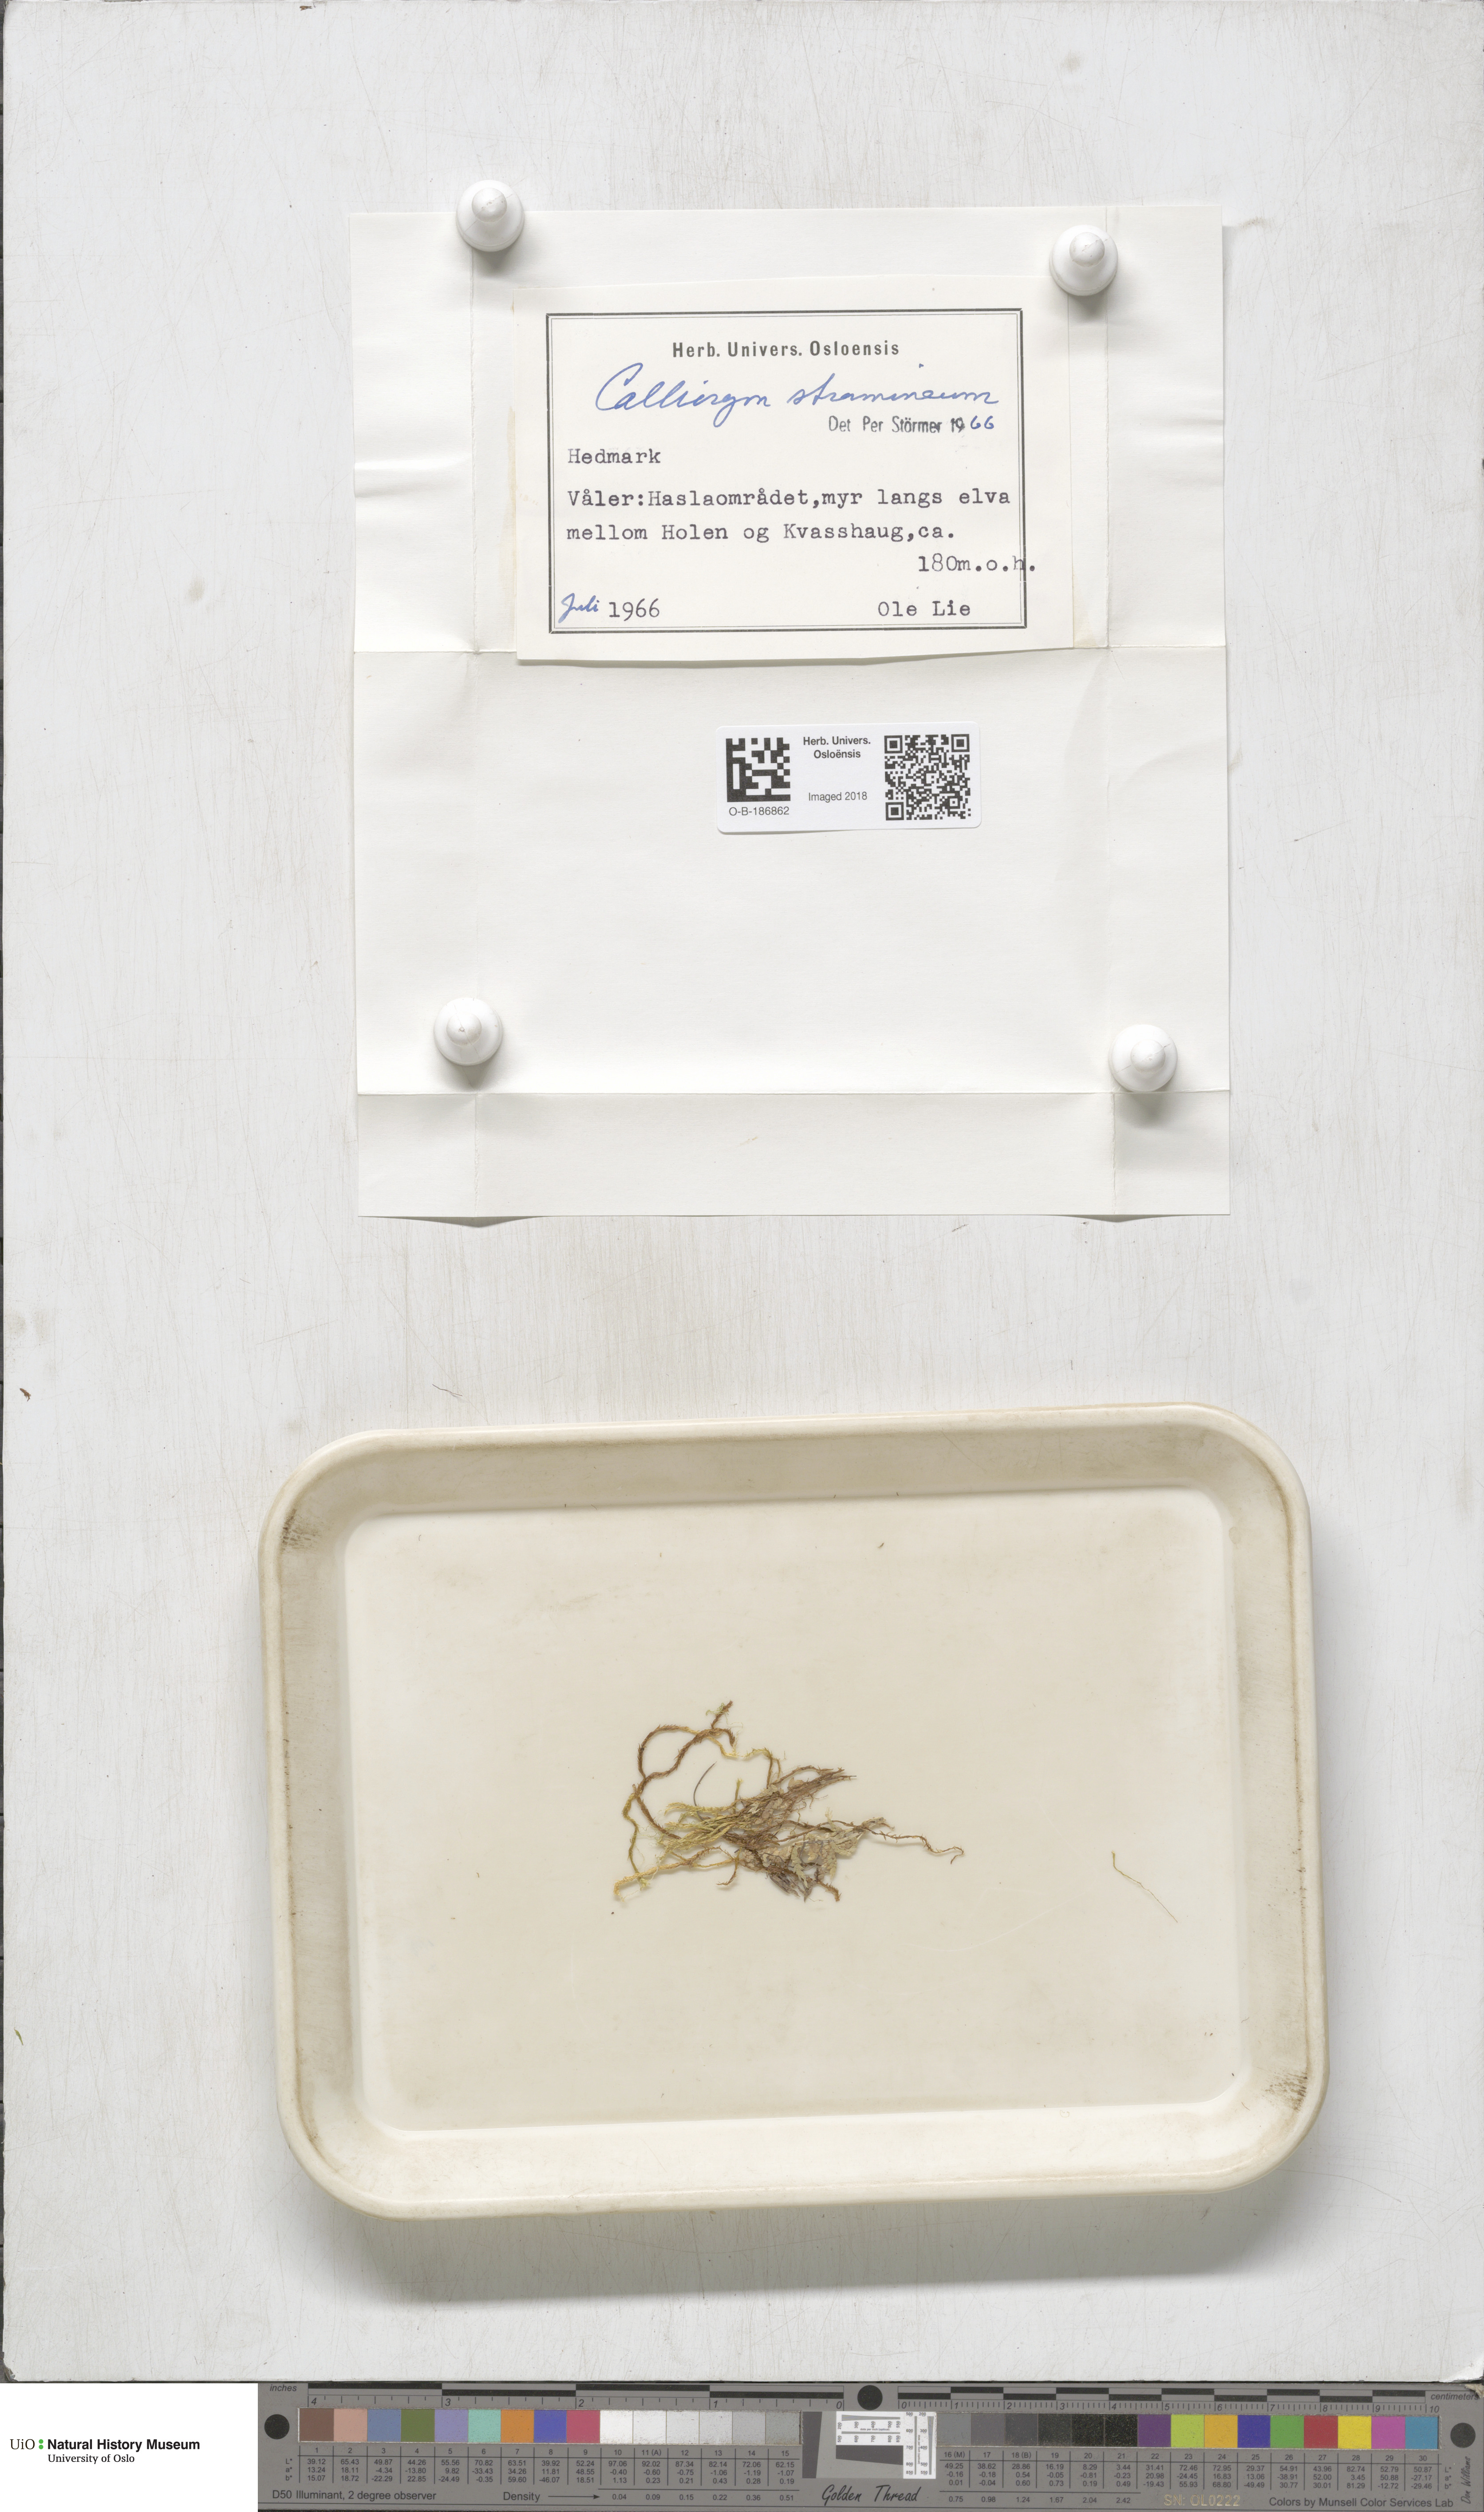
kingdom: Plantae
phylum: Bryophyta
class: Bryopsida
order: Hypnales
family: Calliergonaceae
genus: Straminergon
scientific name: Straminergon stramineum
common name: Straw moss
